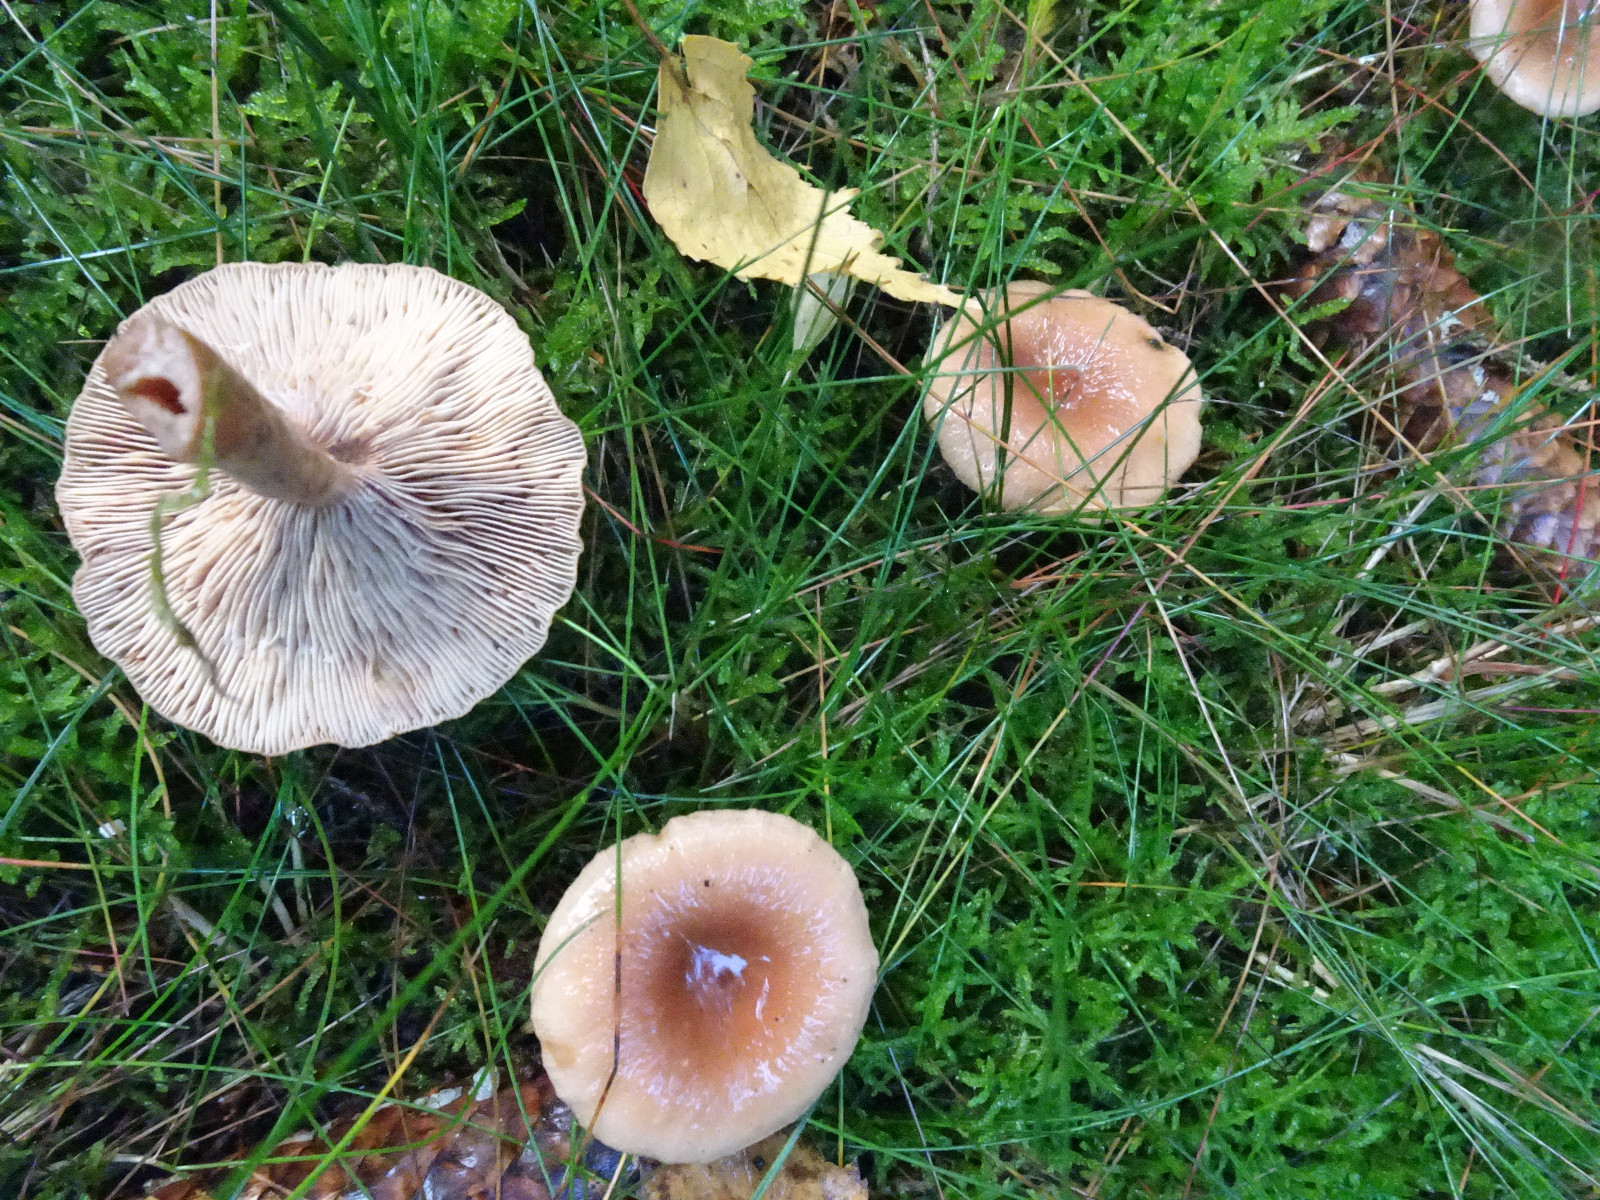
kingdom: Fungi
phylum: Basidiomycota
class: Agaricomycetes
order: Russulales
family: Russulaceae
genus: Lactarius
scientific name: Lactarius tabidus
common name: rynket mælkehat
